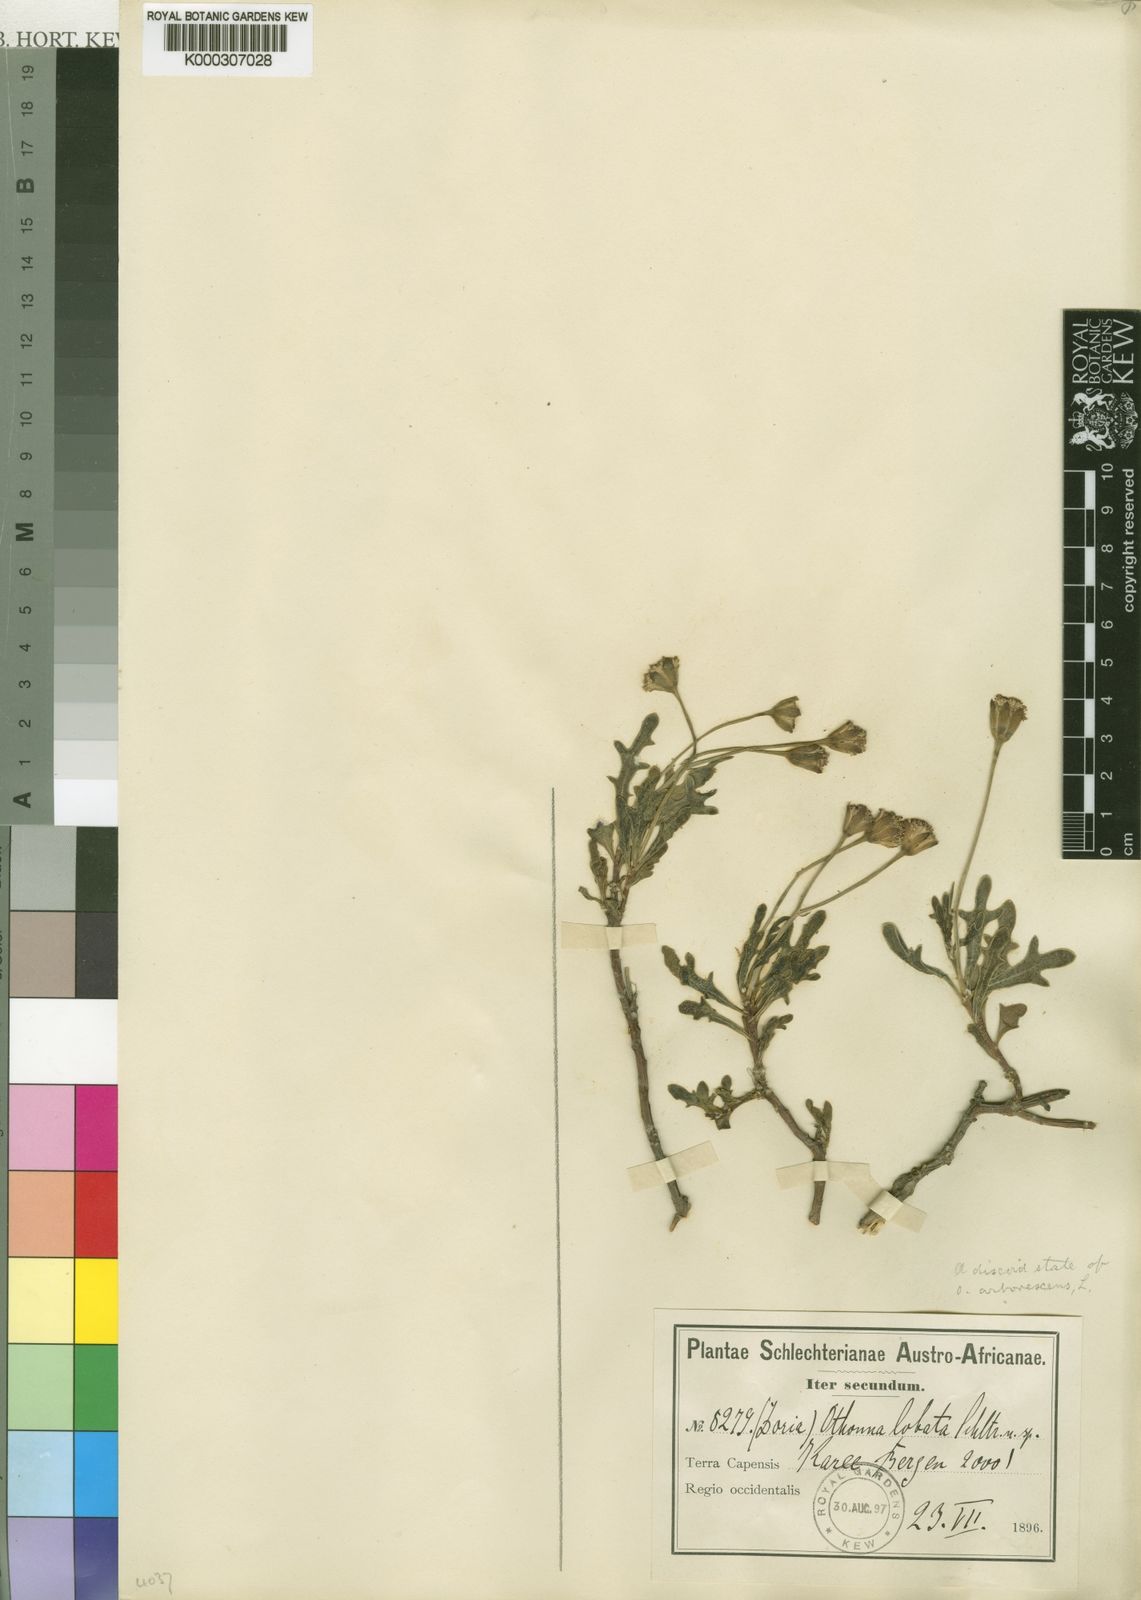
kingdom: Plantae
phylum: Tracheophyta
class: Magnoliopsida
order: Asterales
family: Asteraceae
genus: Othonna
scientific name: Othonna lobata
